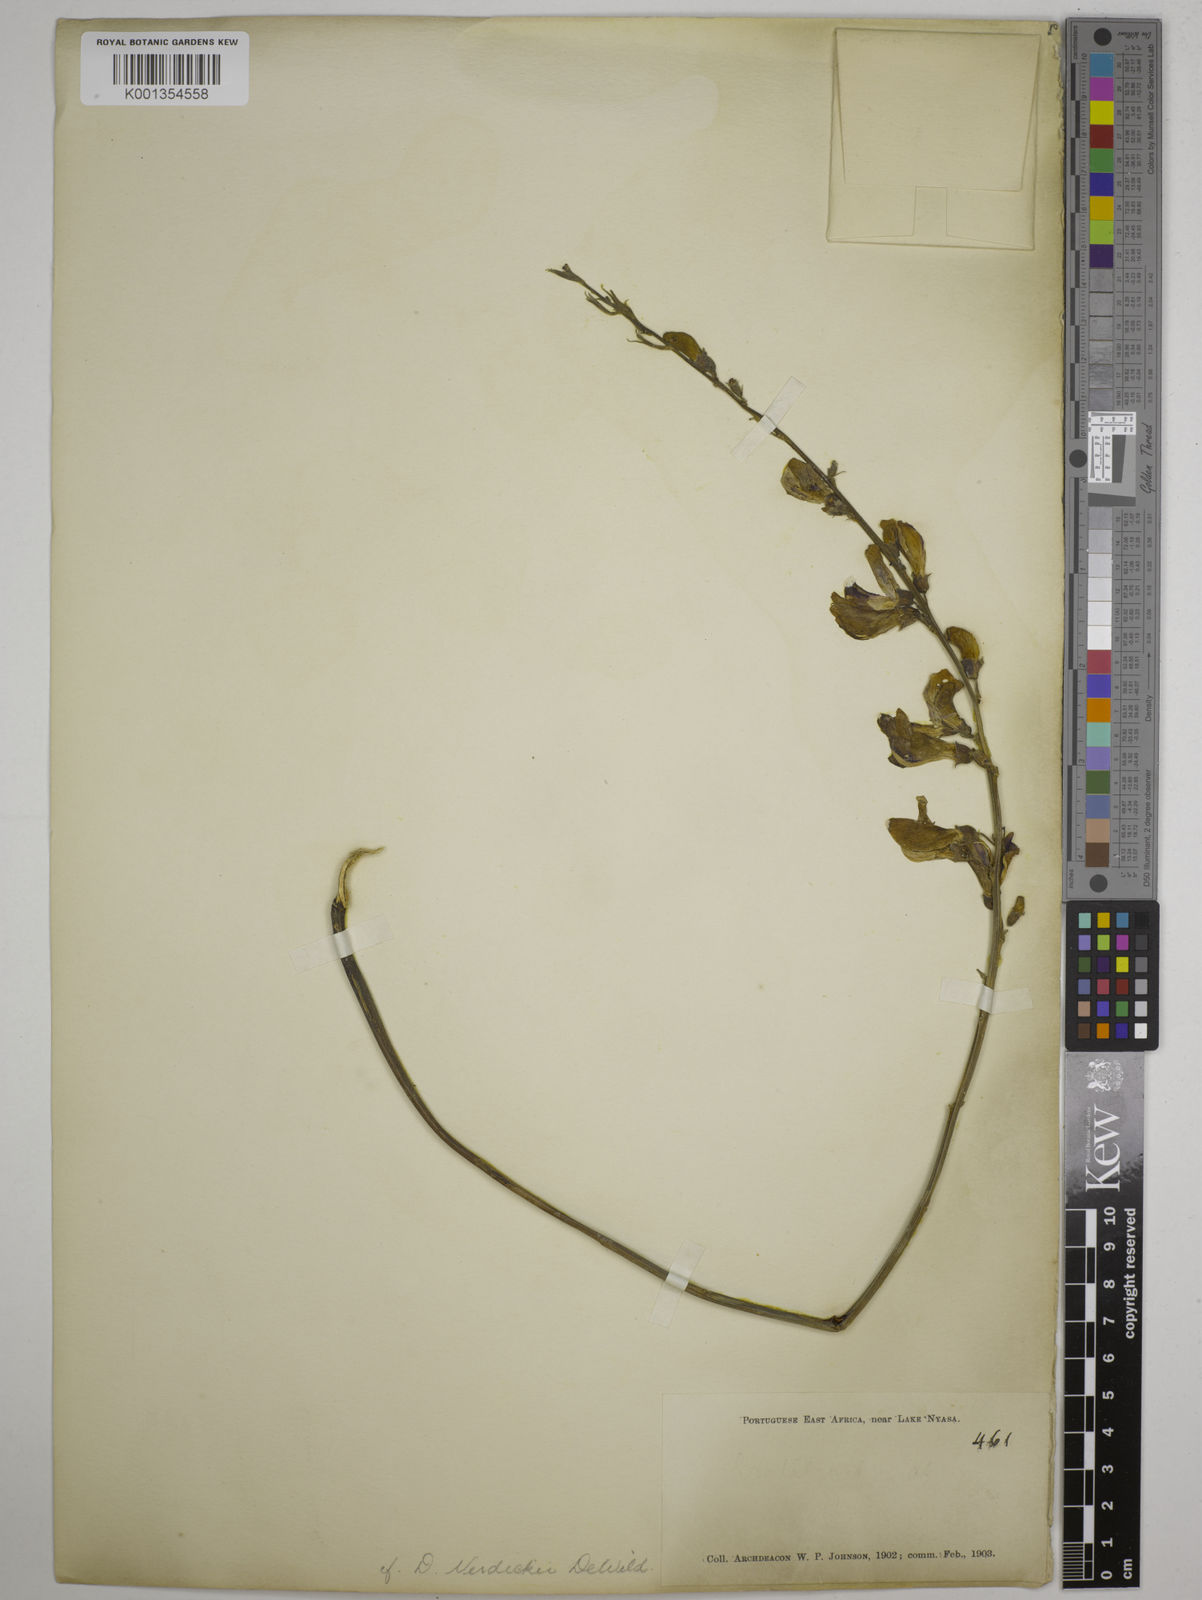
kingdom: Plantae
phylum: Tracheophyta
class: Magnoliopsida
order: Fabales
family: Fabaceae
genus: Dolichos
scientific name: Dolichos kilimandscharicus
